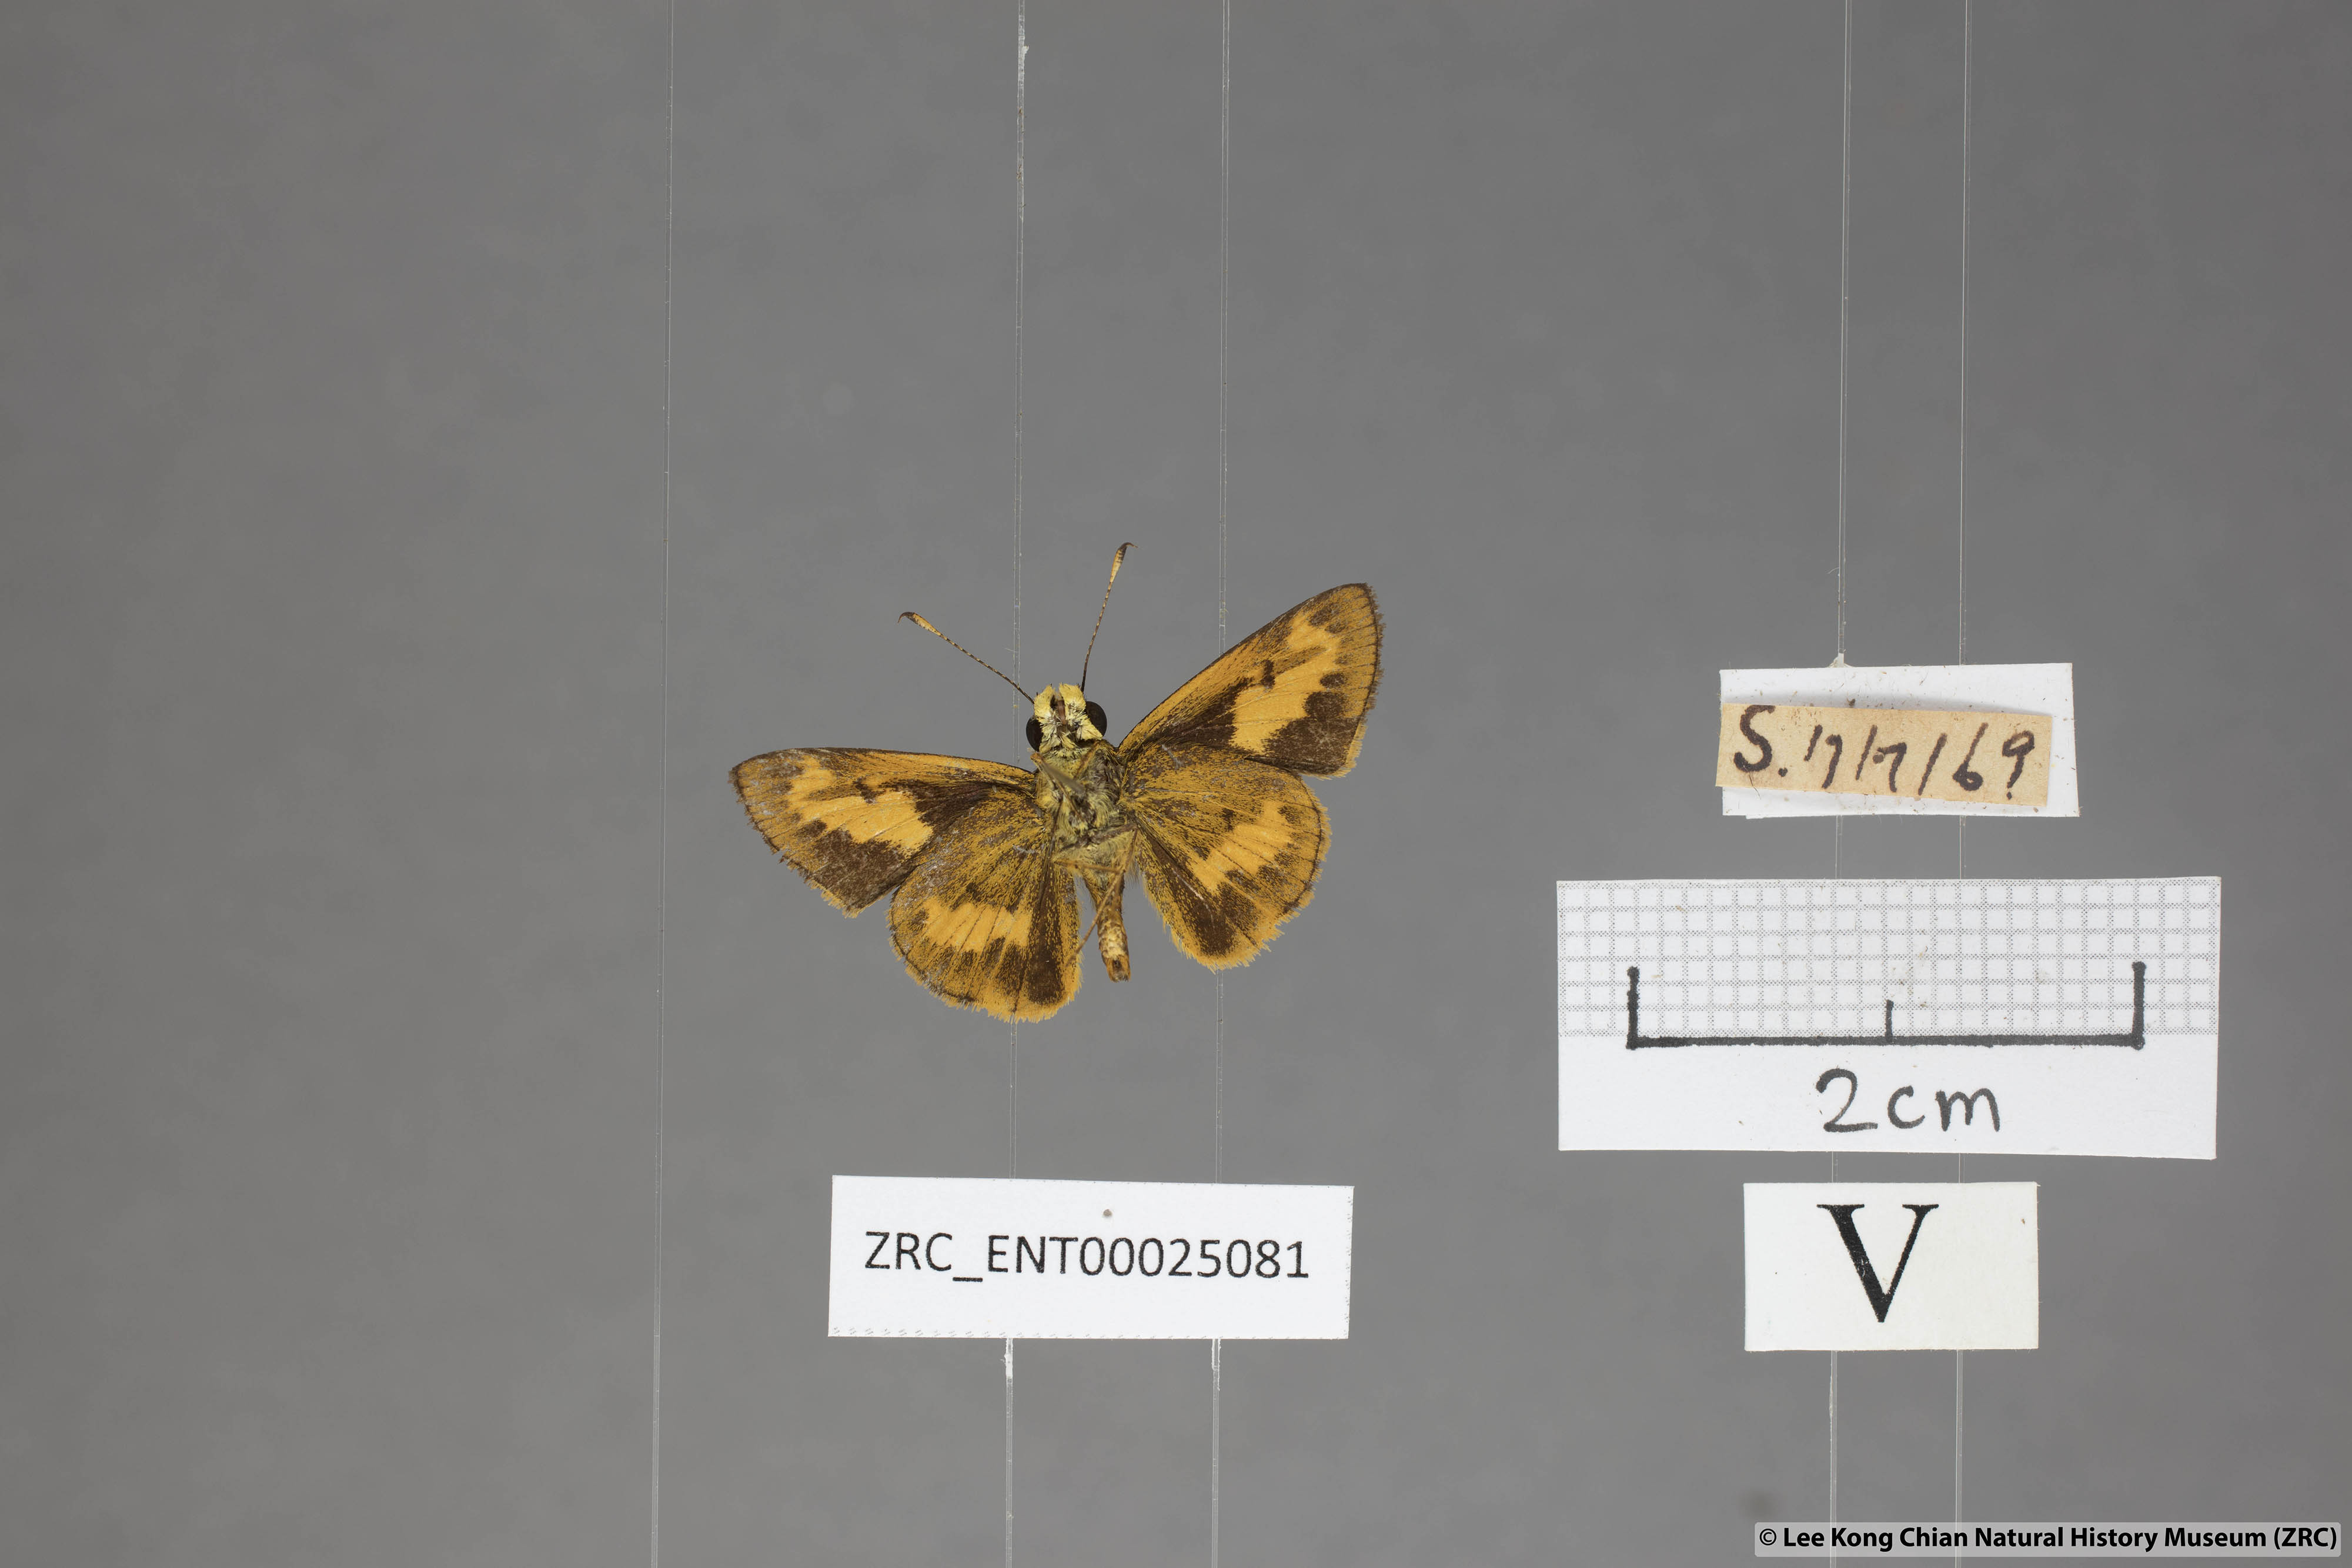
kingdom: Animalia
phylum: Arthropoda
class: Insecta
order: Lepidoptera
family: Hesperiidae
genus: Oriens
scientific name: Oriens gola
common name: Common dartlet
